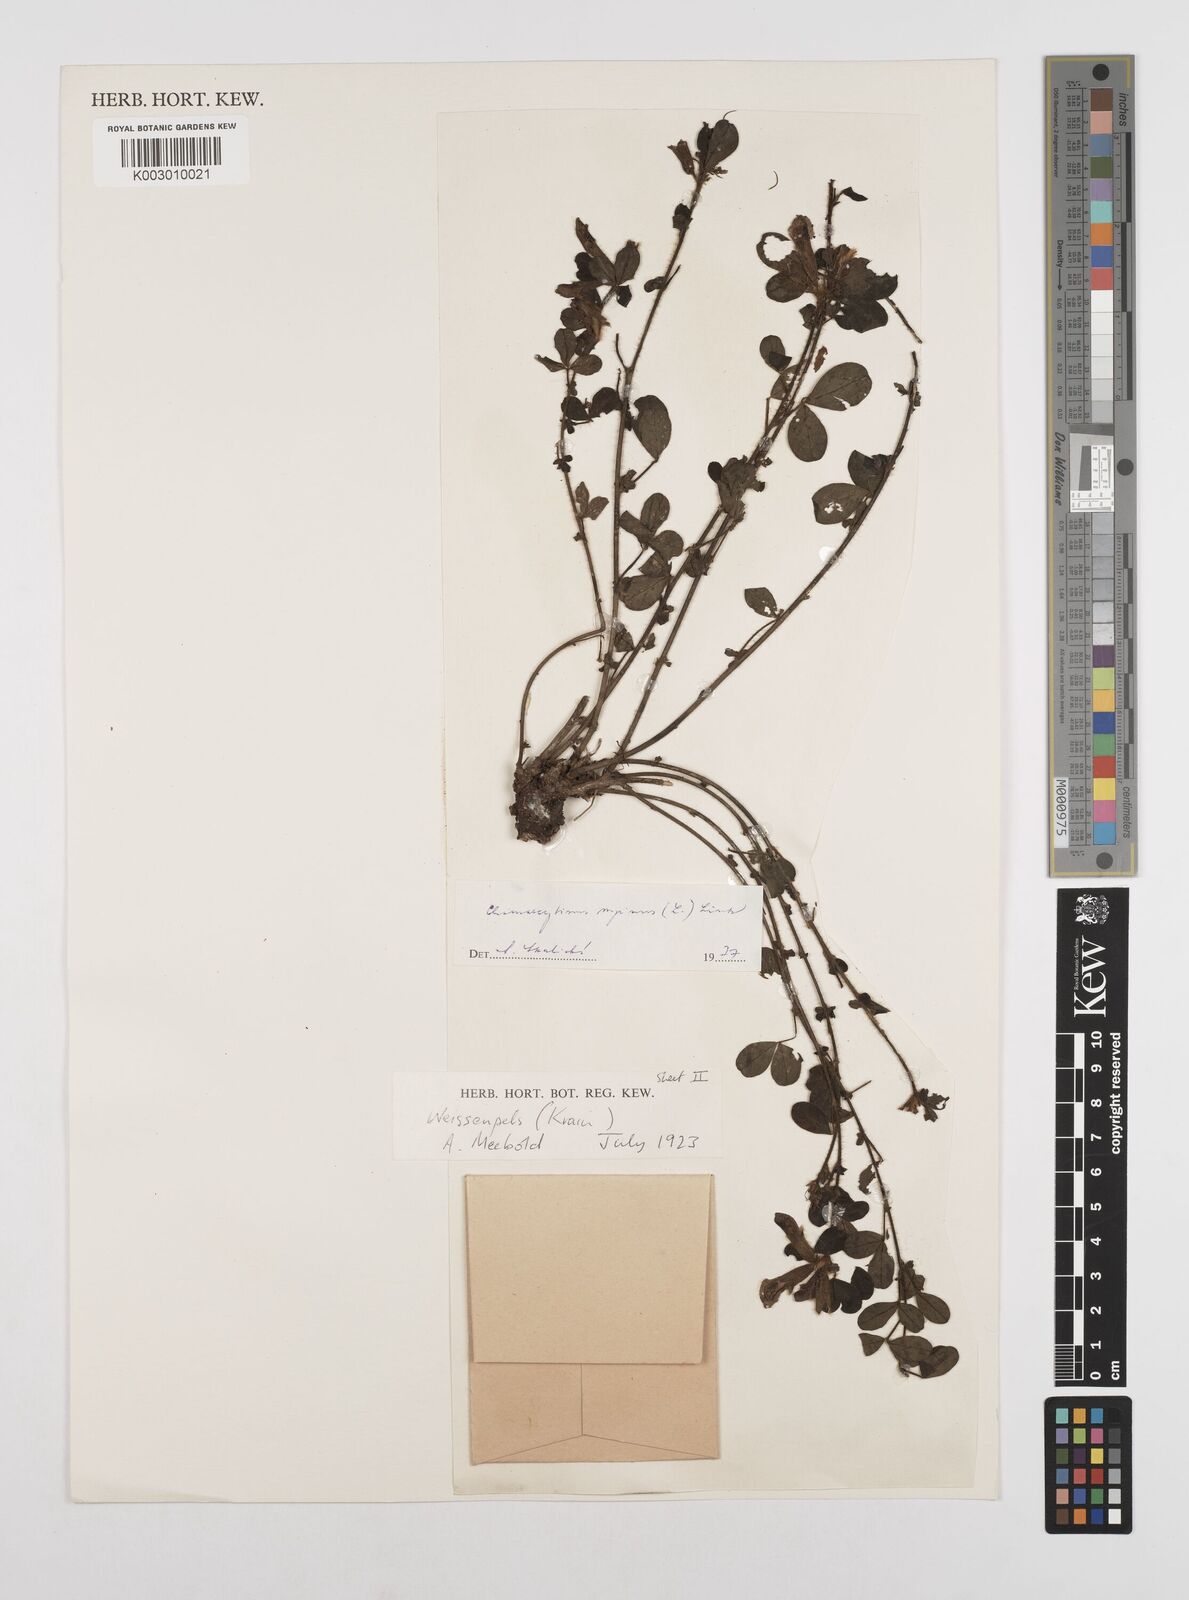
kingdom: Plantae
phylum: Tracheophyta
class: Magnoliopsida
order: Fabales
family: Fabaceae
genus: Chamaecytisus
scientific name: Chamaecytisus hirsutus
